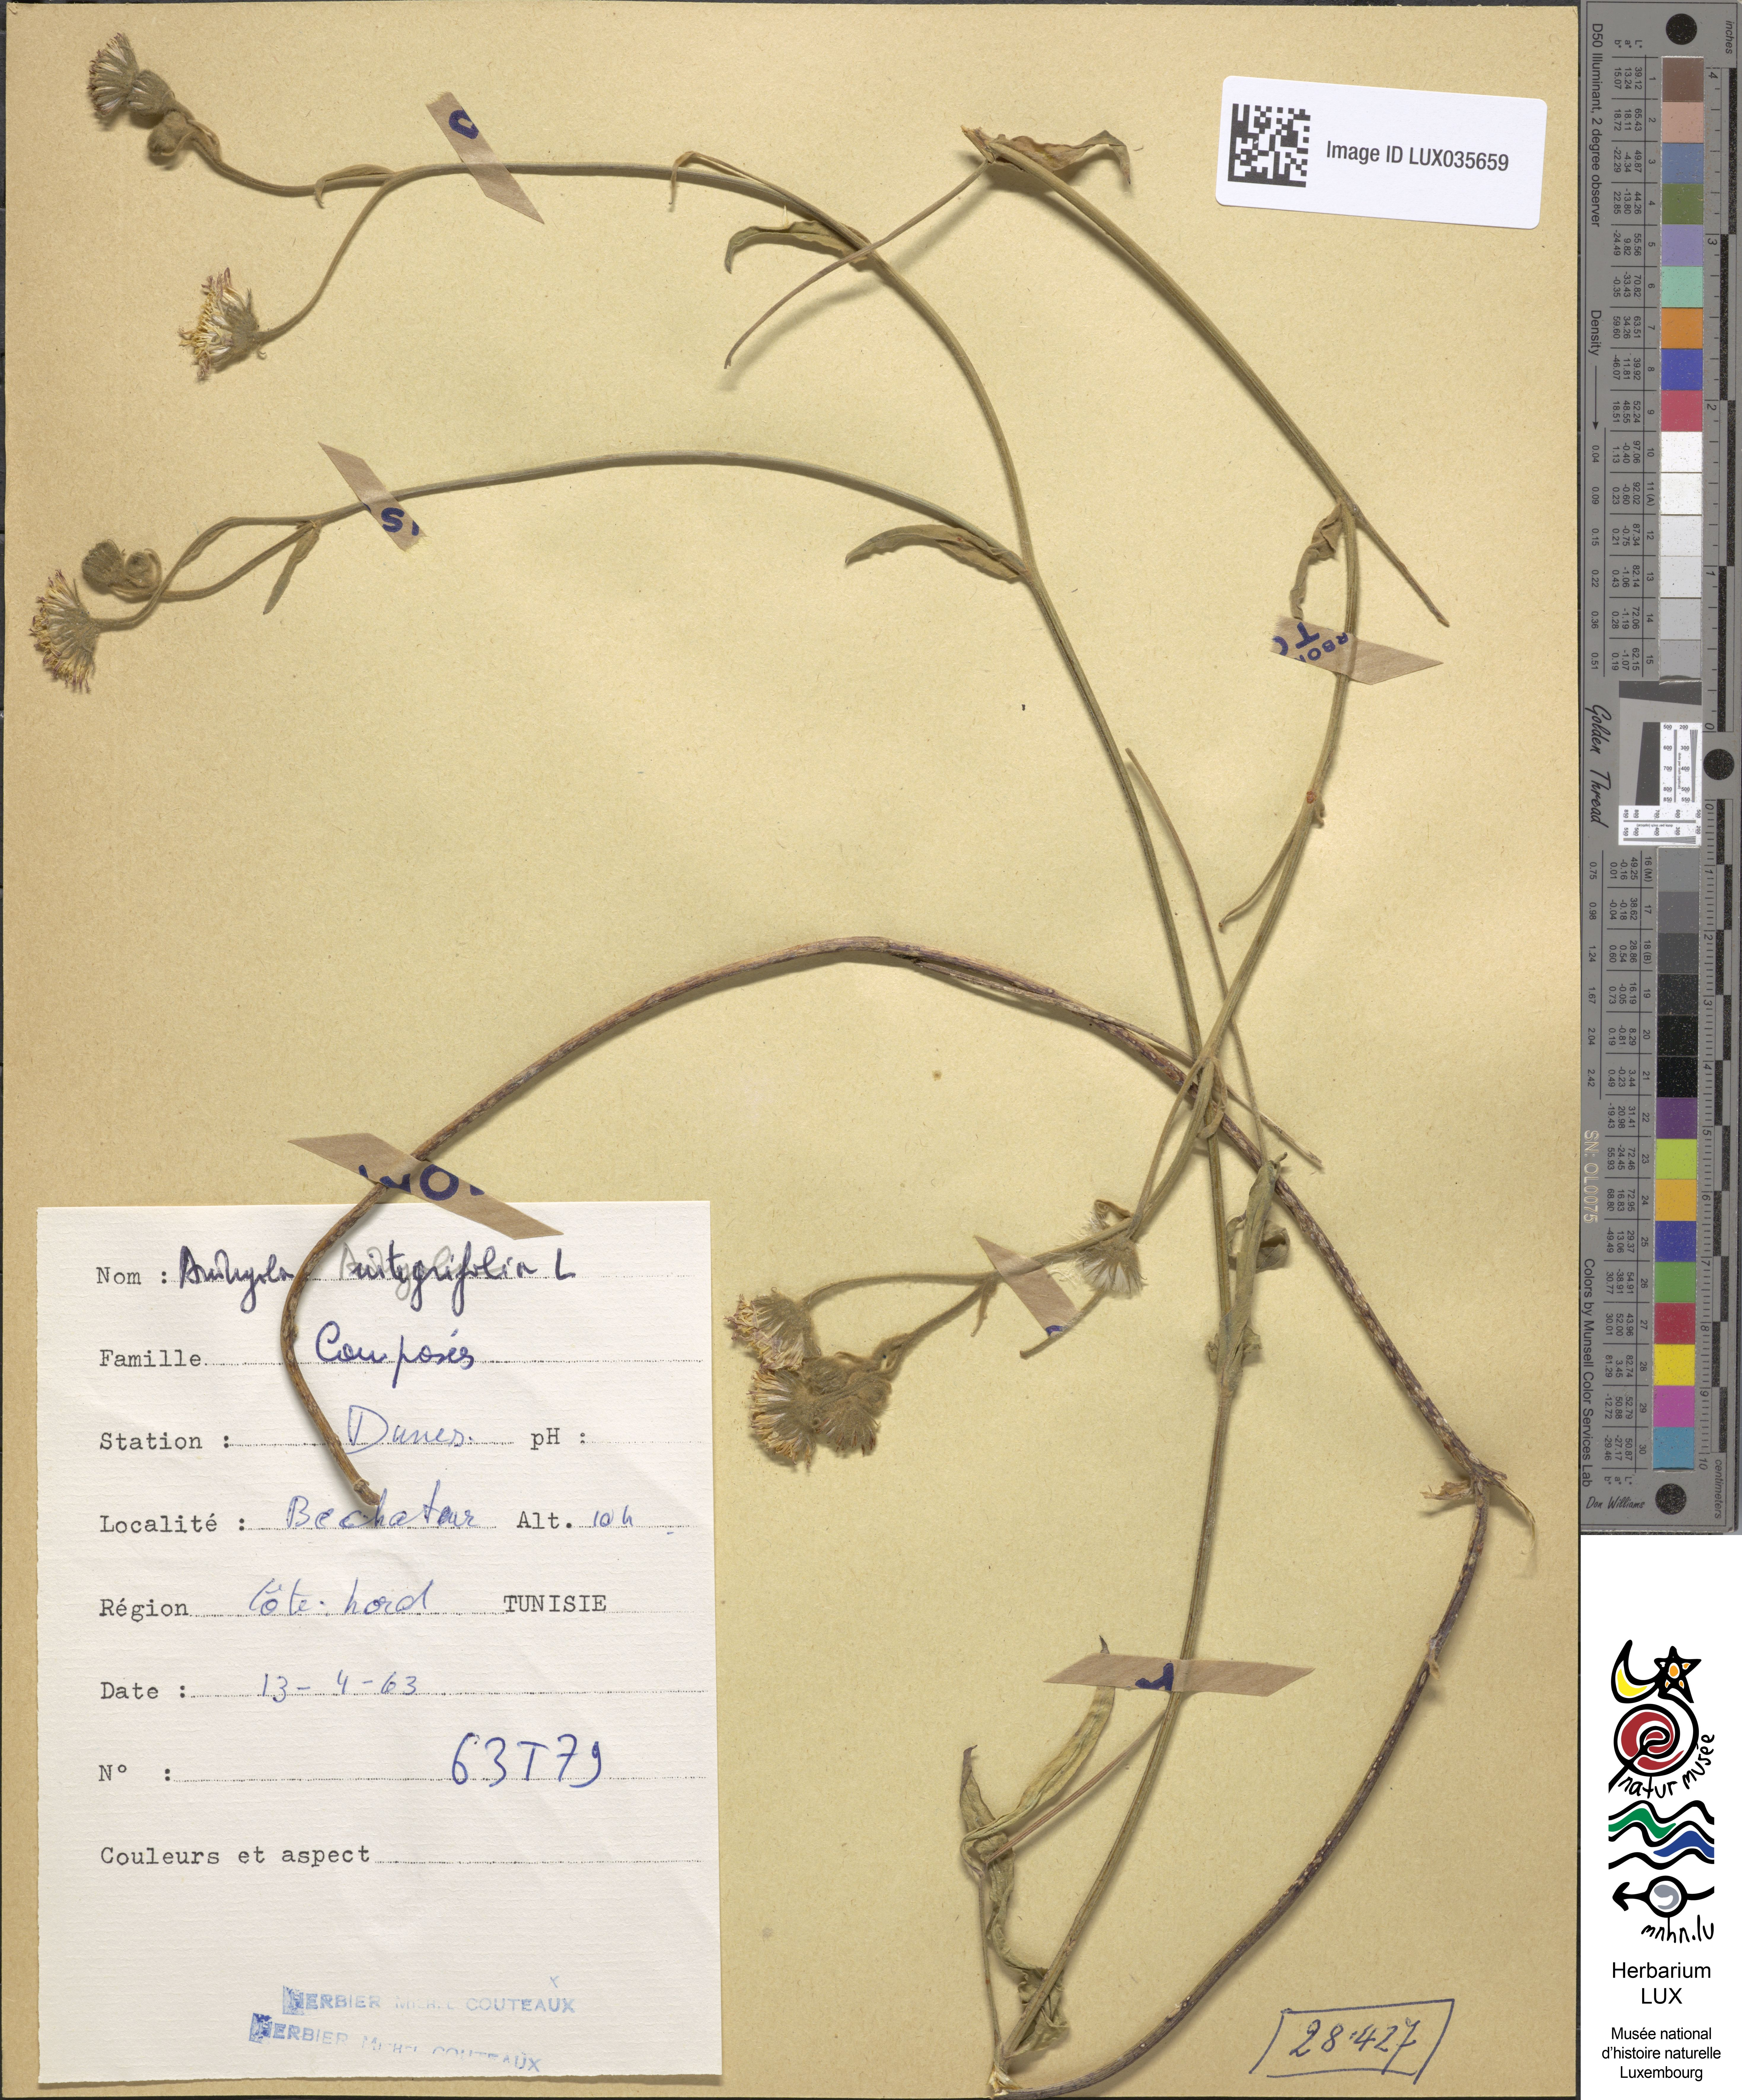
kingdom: Plantae
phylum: Tracheophyta
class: Magnoliopsida
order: Asterales
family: Asteraceae
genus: Andryala
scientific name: Andryala integrifolia
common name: Common andryala
